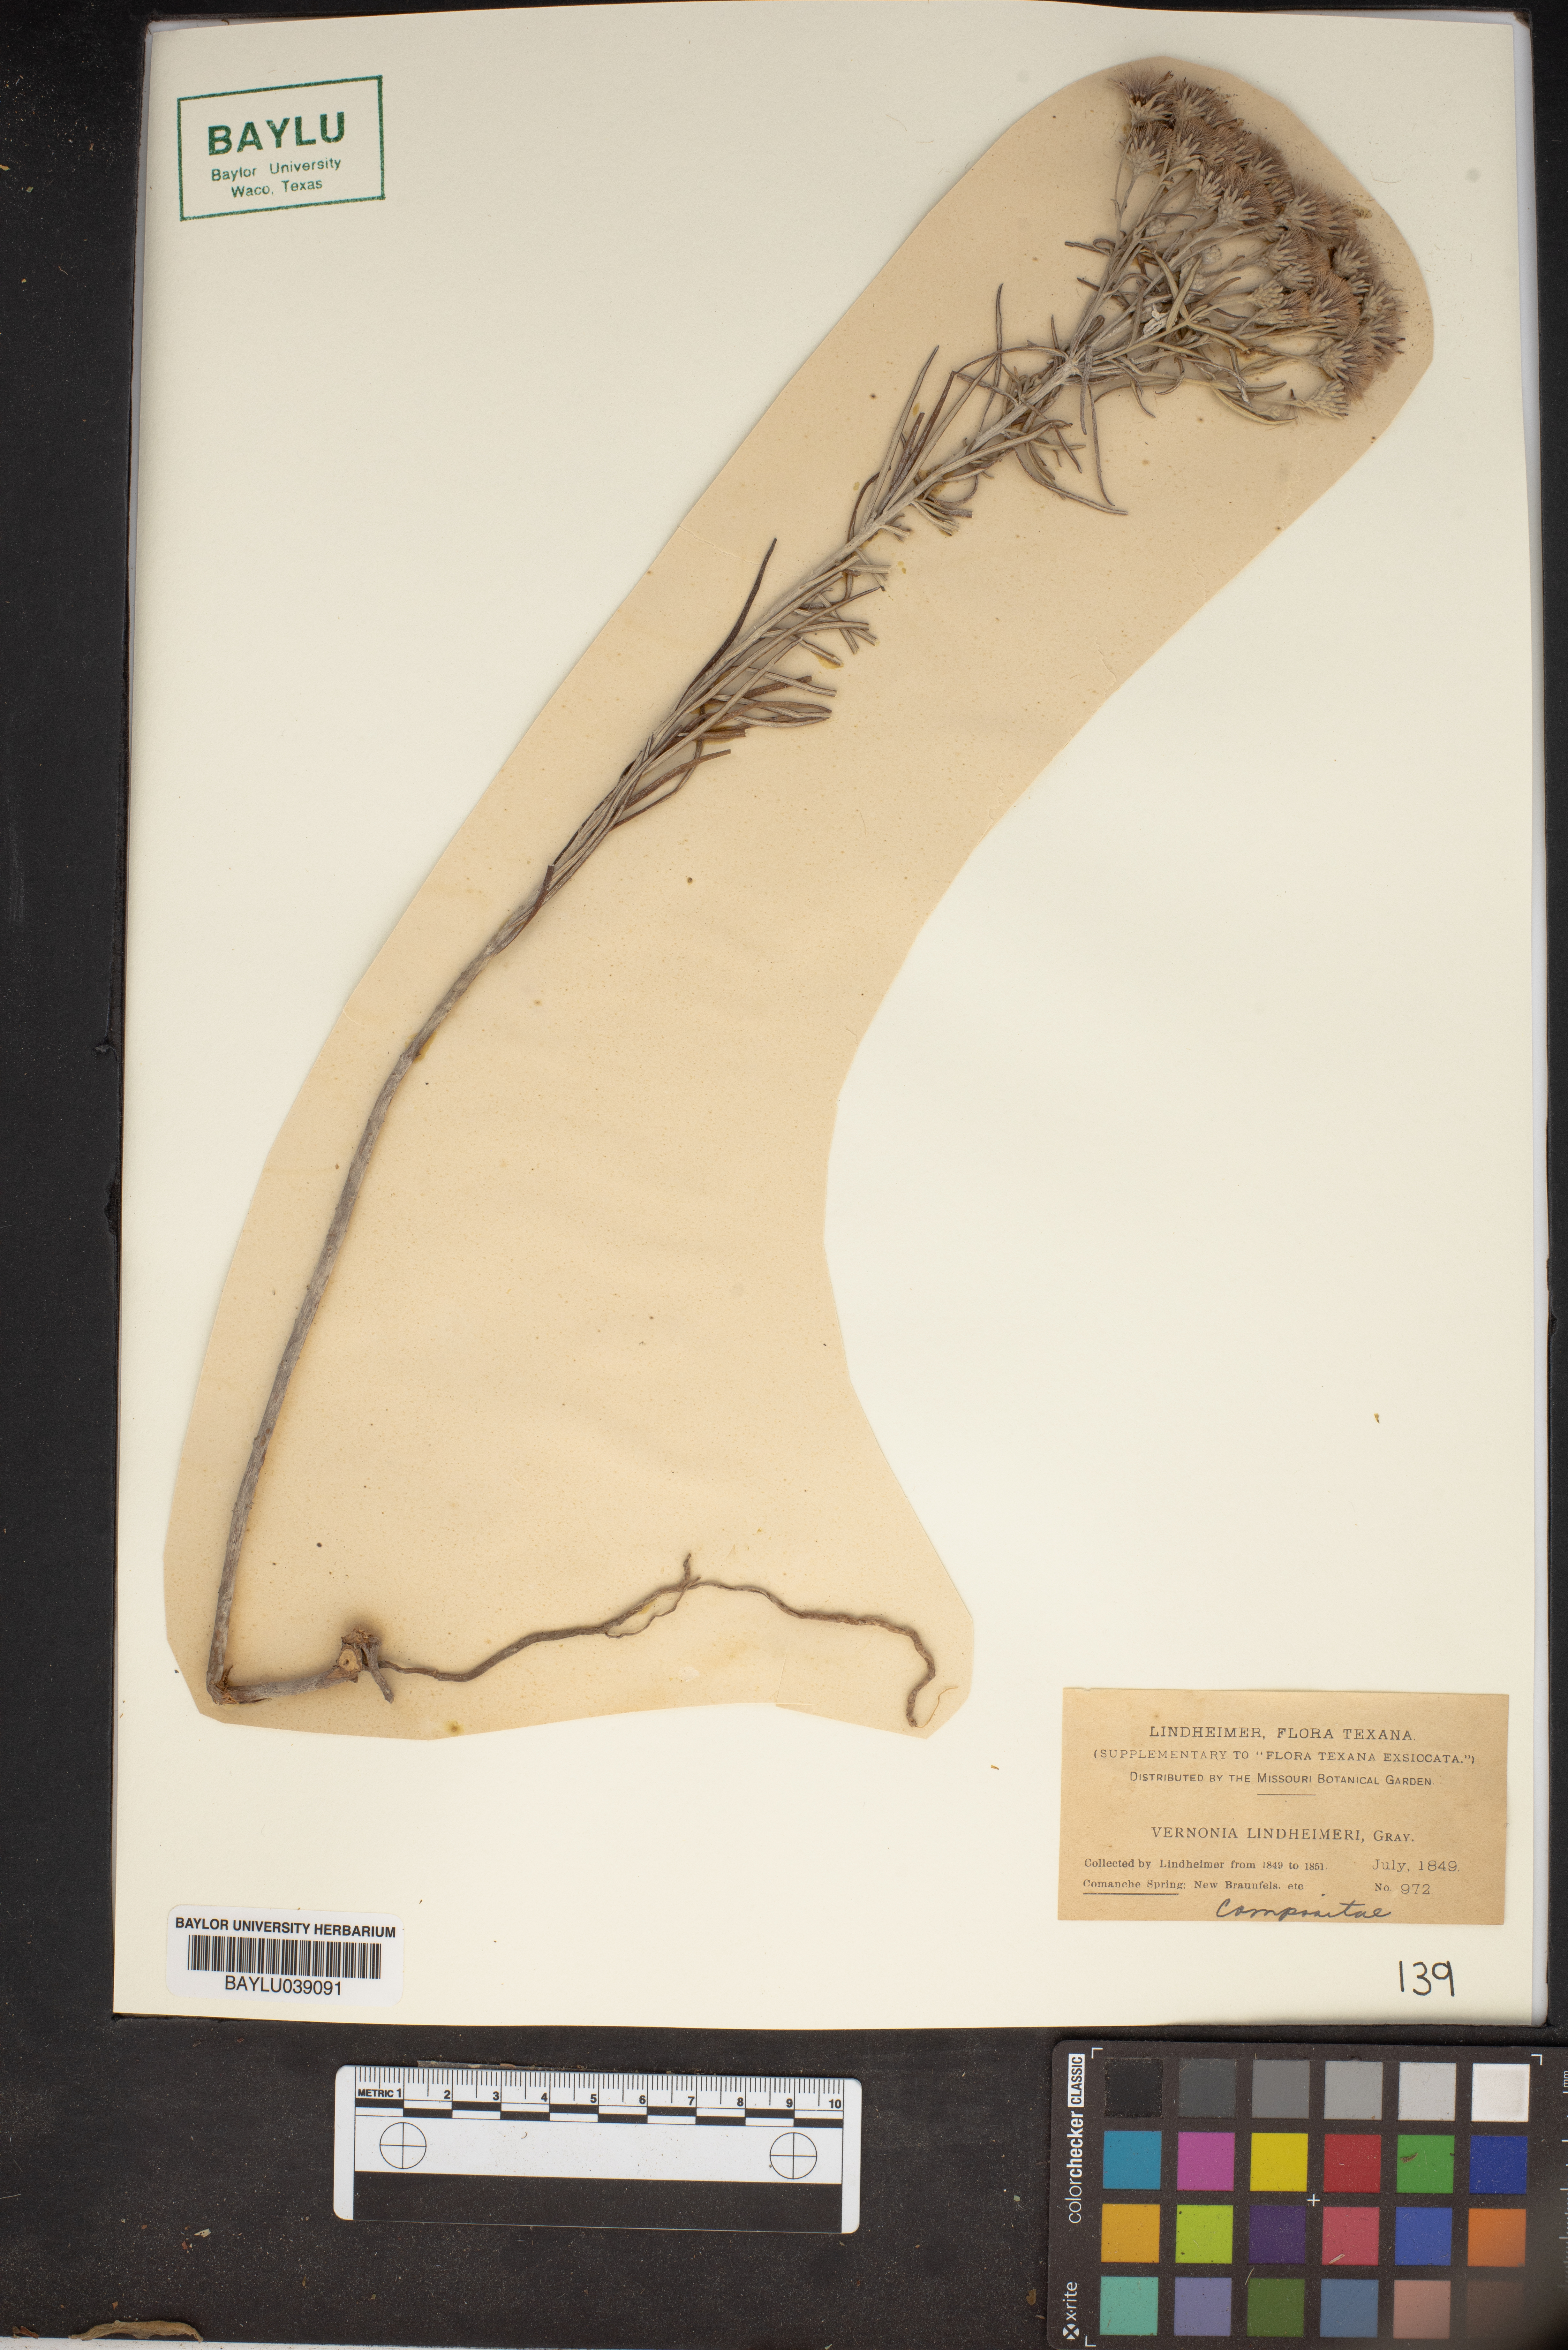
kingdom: Plantae
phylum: Tracheophyta
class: Magnoliopsida
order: Asterales
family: Asteraceae
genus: Vernonia
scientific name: Vernonia lindheimeri
